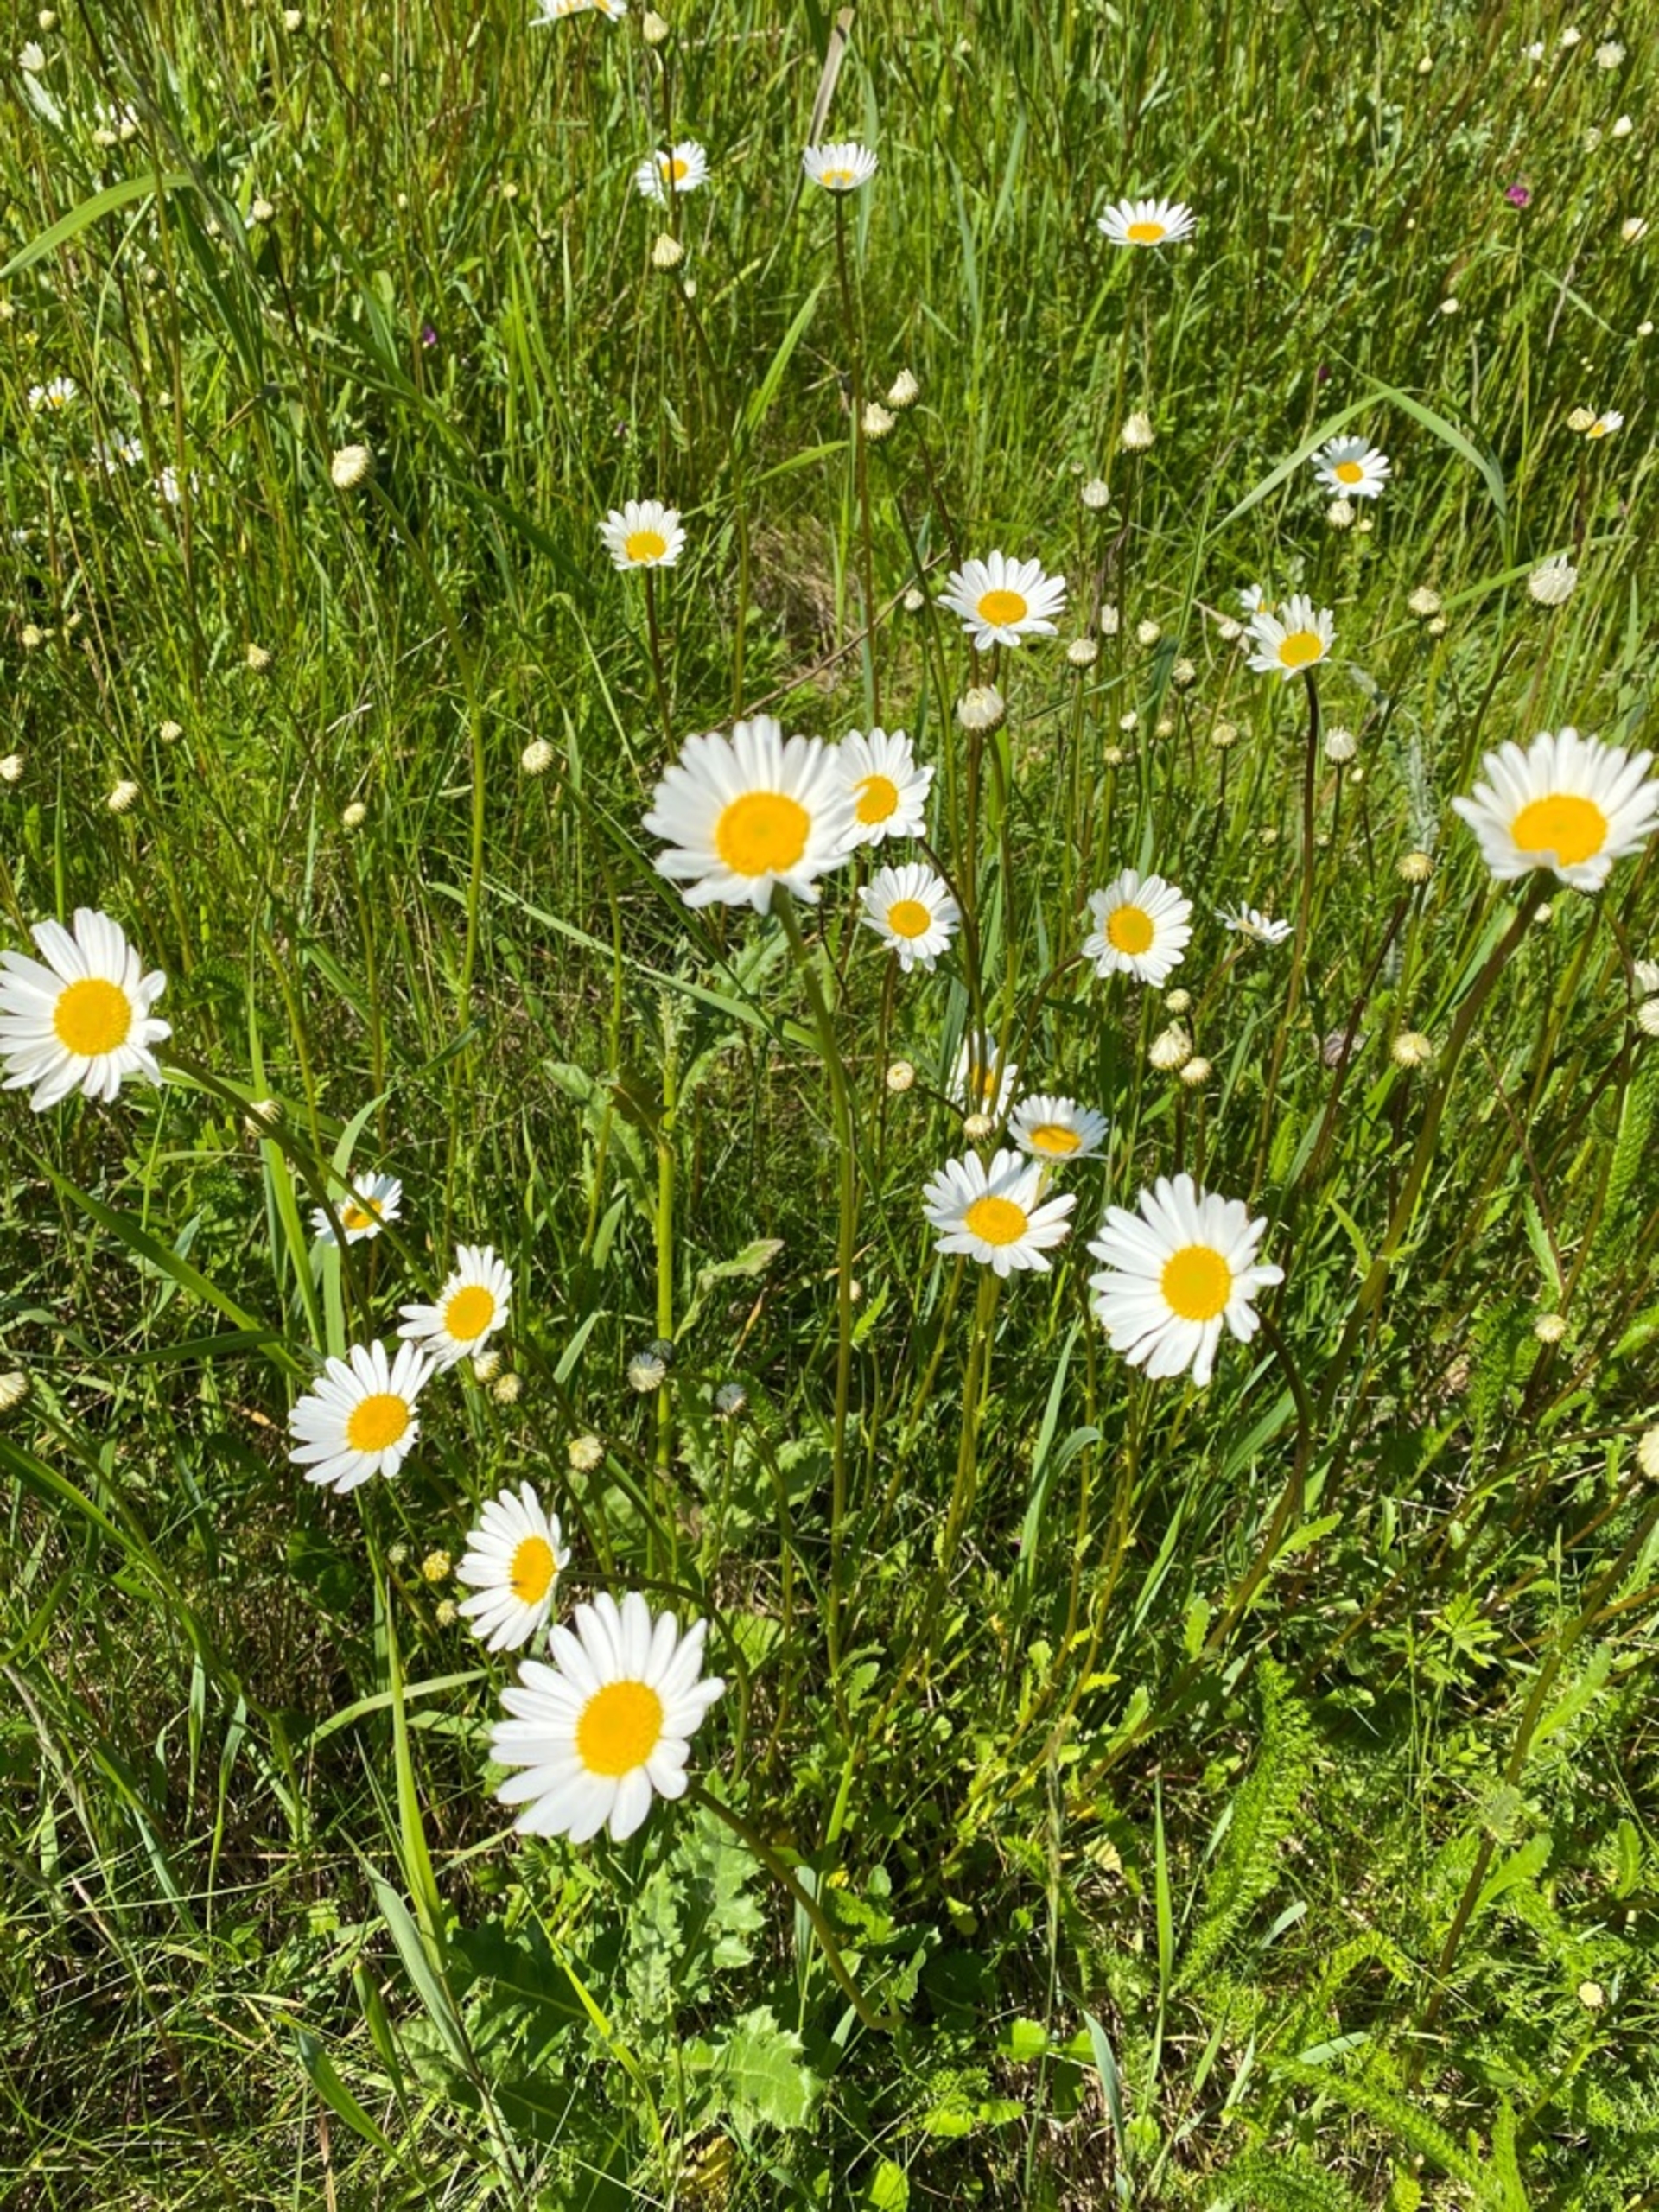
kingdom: Plantae
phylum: Tracheophyta
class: Magnoliopsida
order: Asterales
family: Asteraceae
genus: Leucanthemum
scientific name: Leucanthemum vulgare
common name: Hvid okseøje
